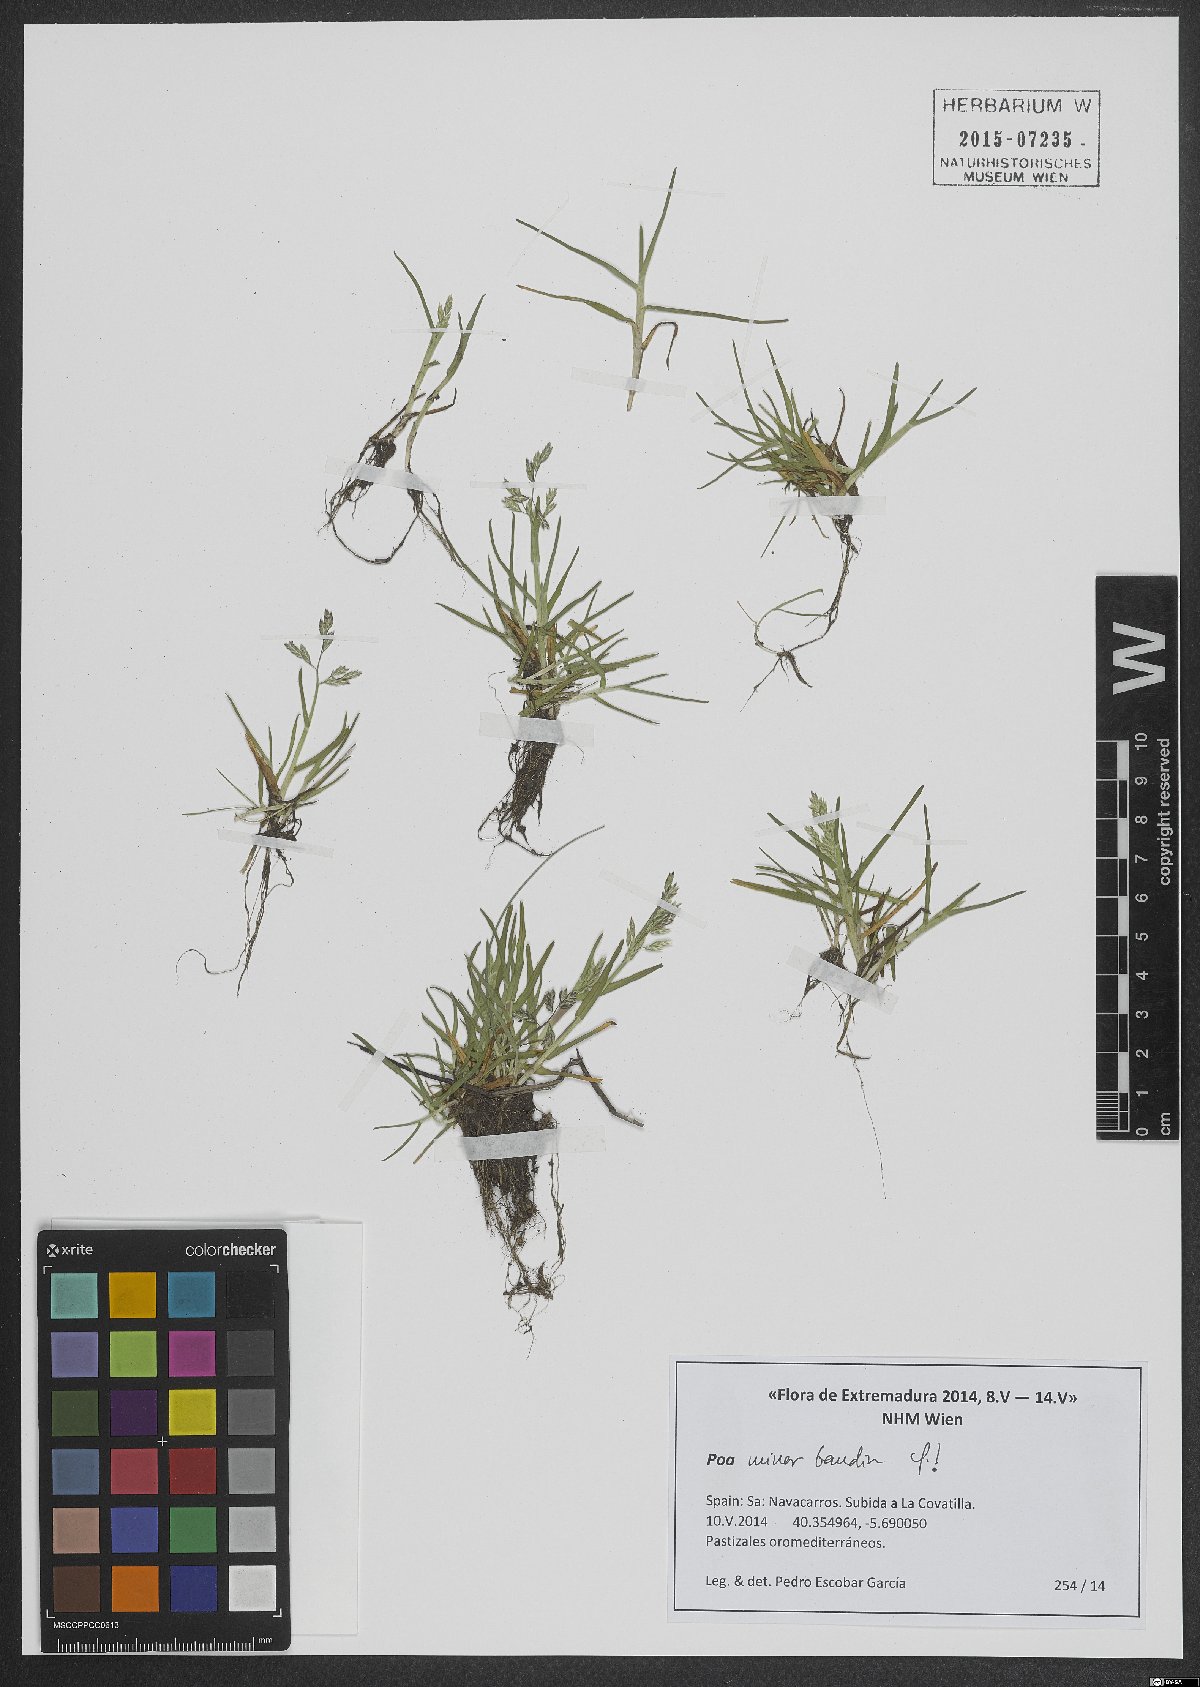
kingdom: Plantae
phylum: Tracheophyta
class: Liliopsida
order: Poales
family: Poaceae
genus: Poa
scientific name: Poa minor
